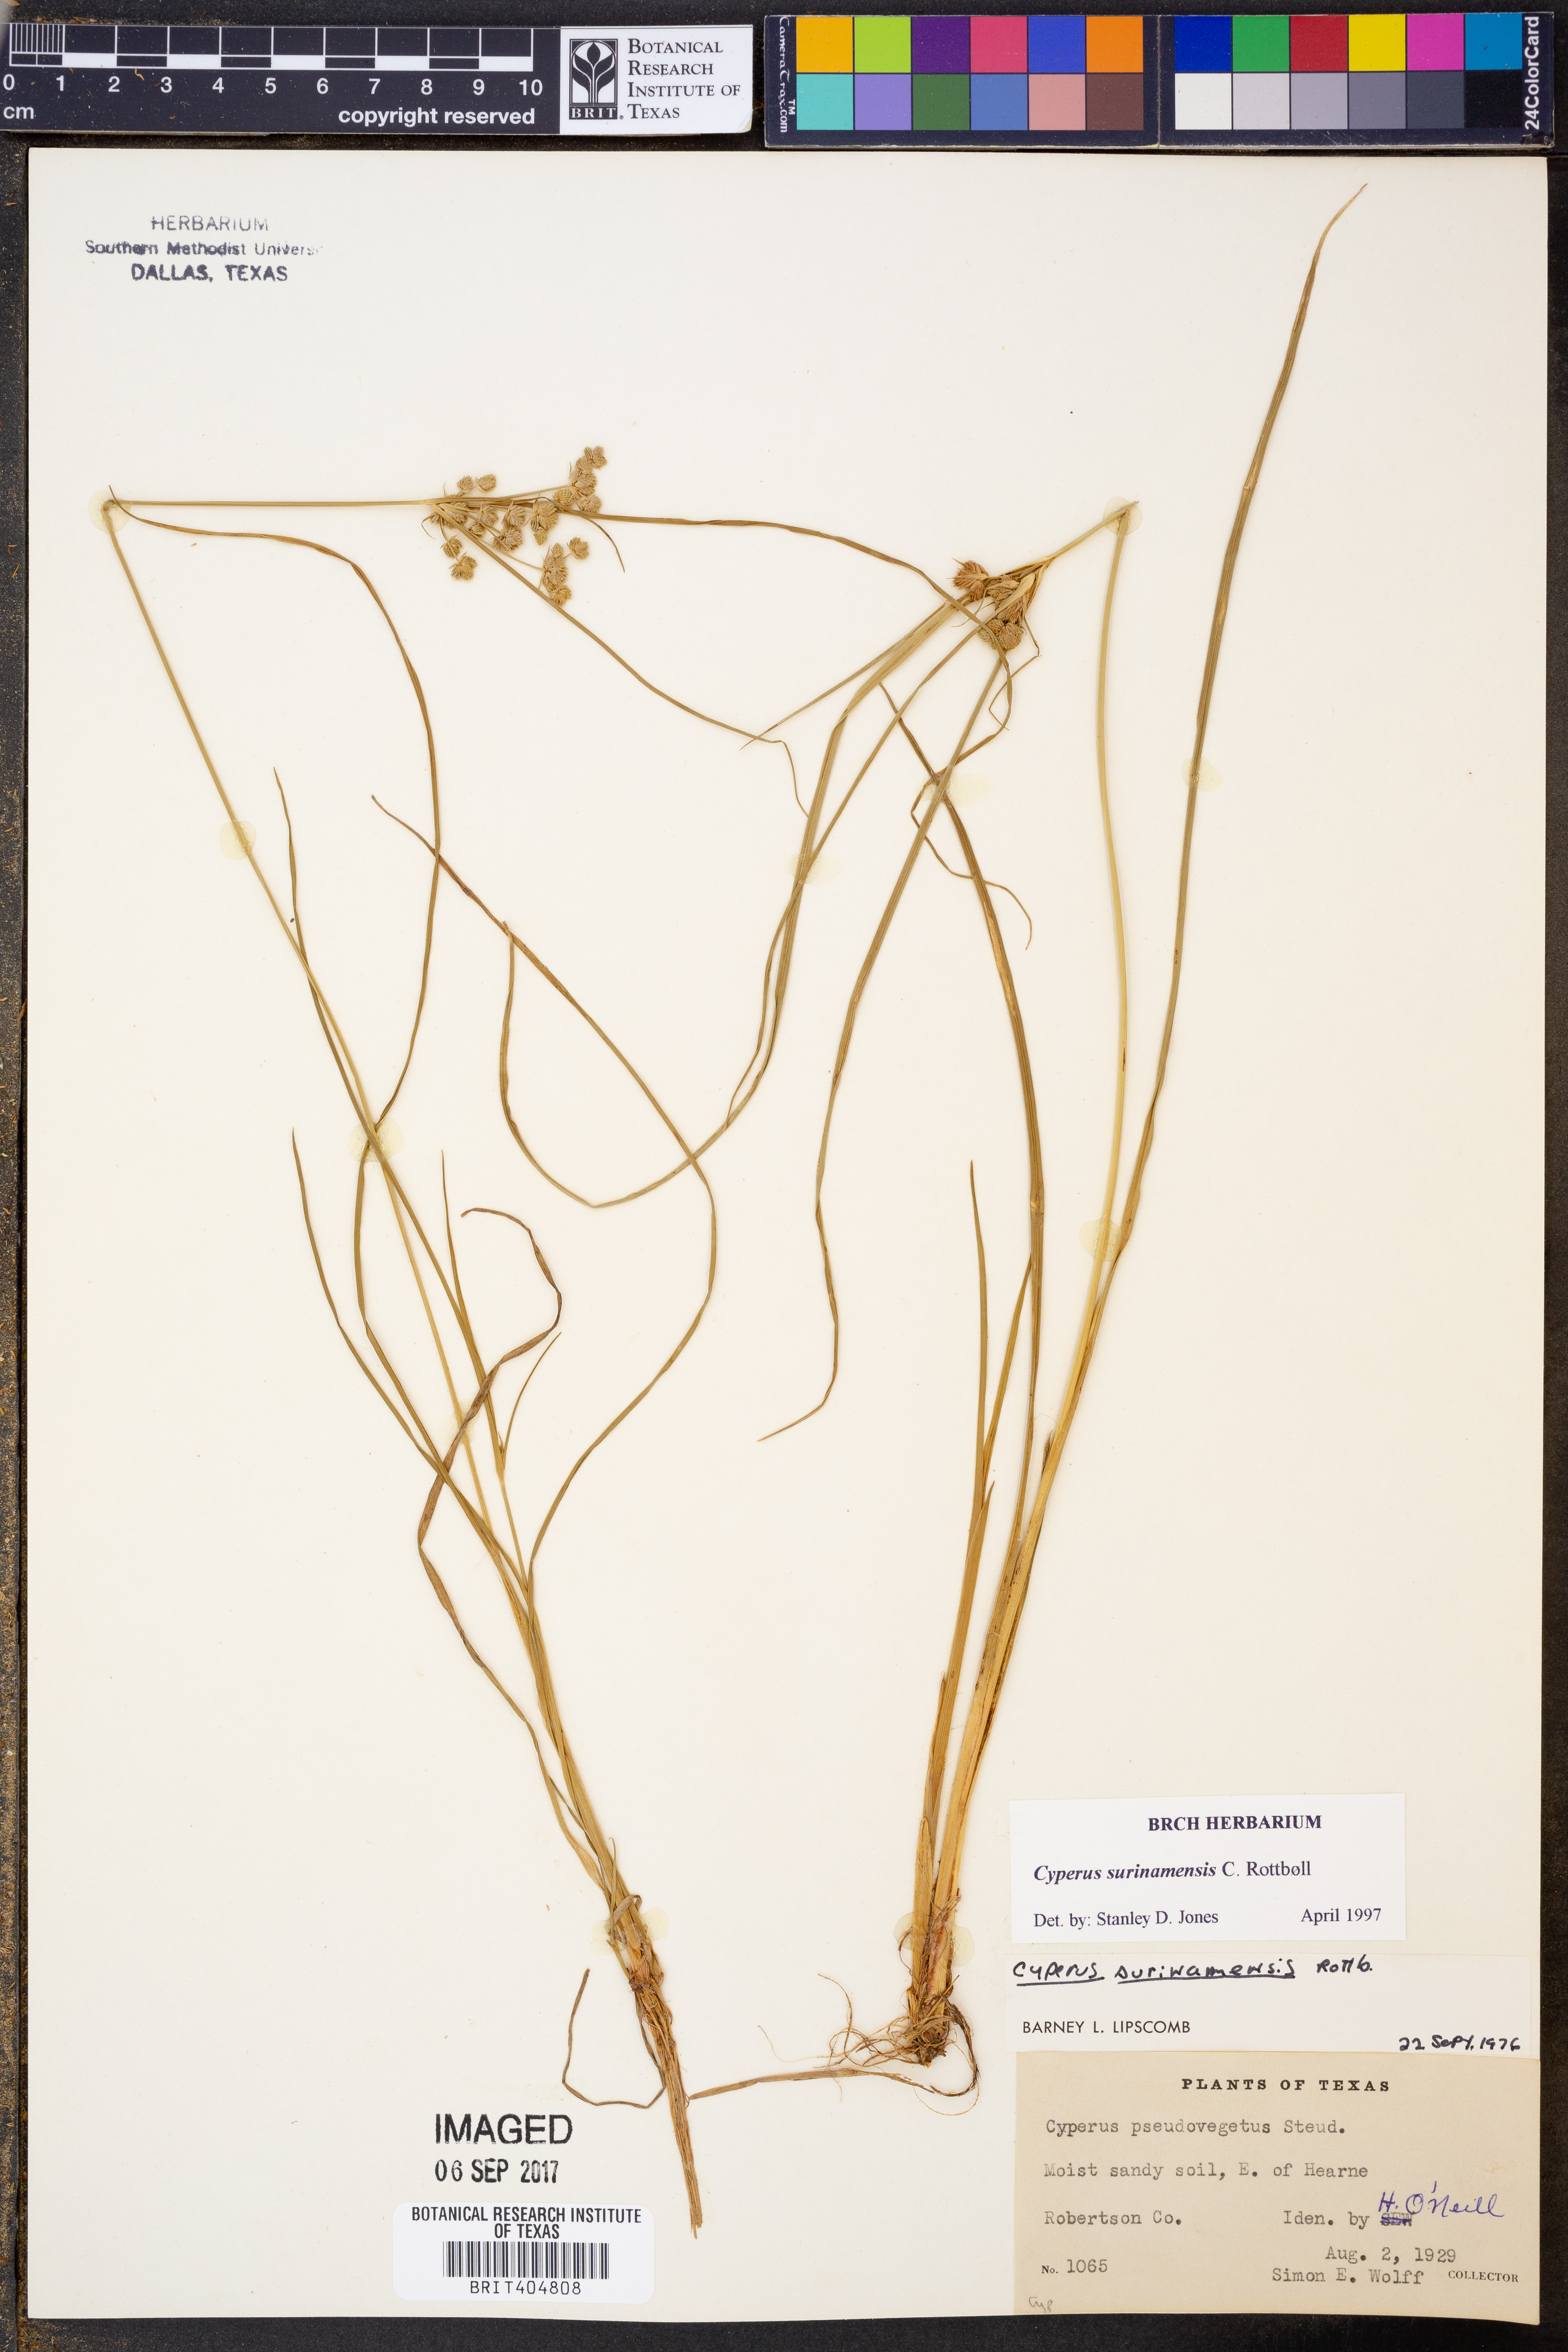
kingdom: Plantae
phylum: Tracheophyta
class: Liliopsida
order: Poales
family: Cyperaceae
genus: Cyperus
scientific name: Cyperus surinamensis
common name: Tropical flat sedge
